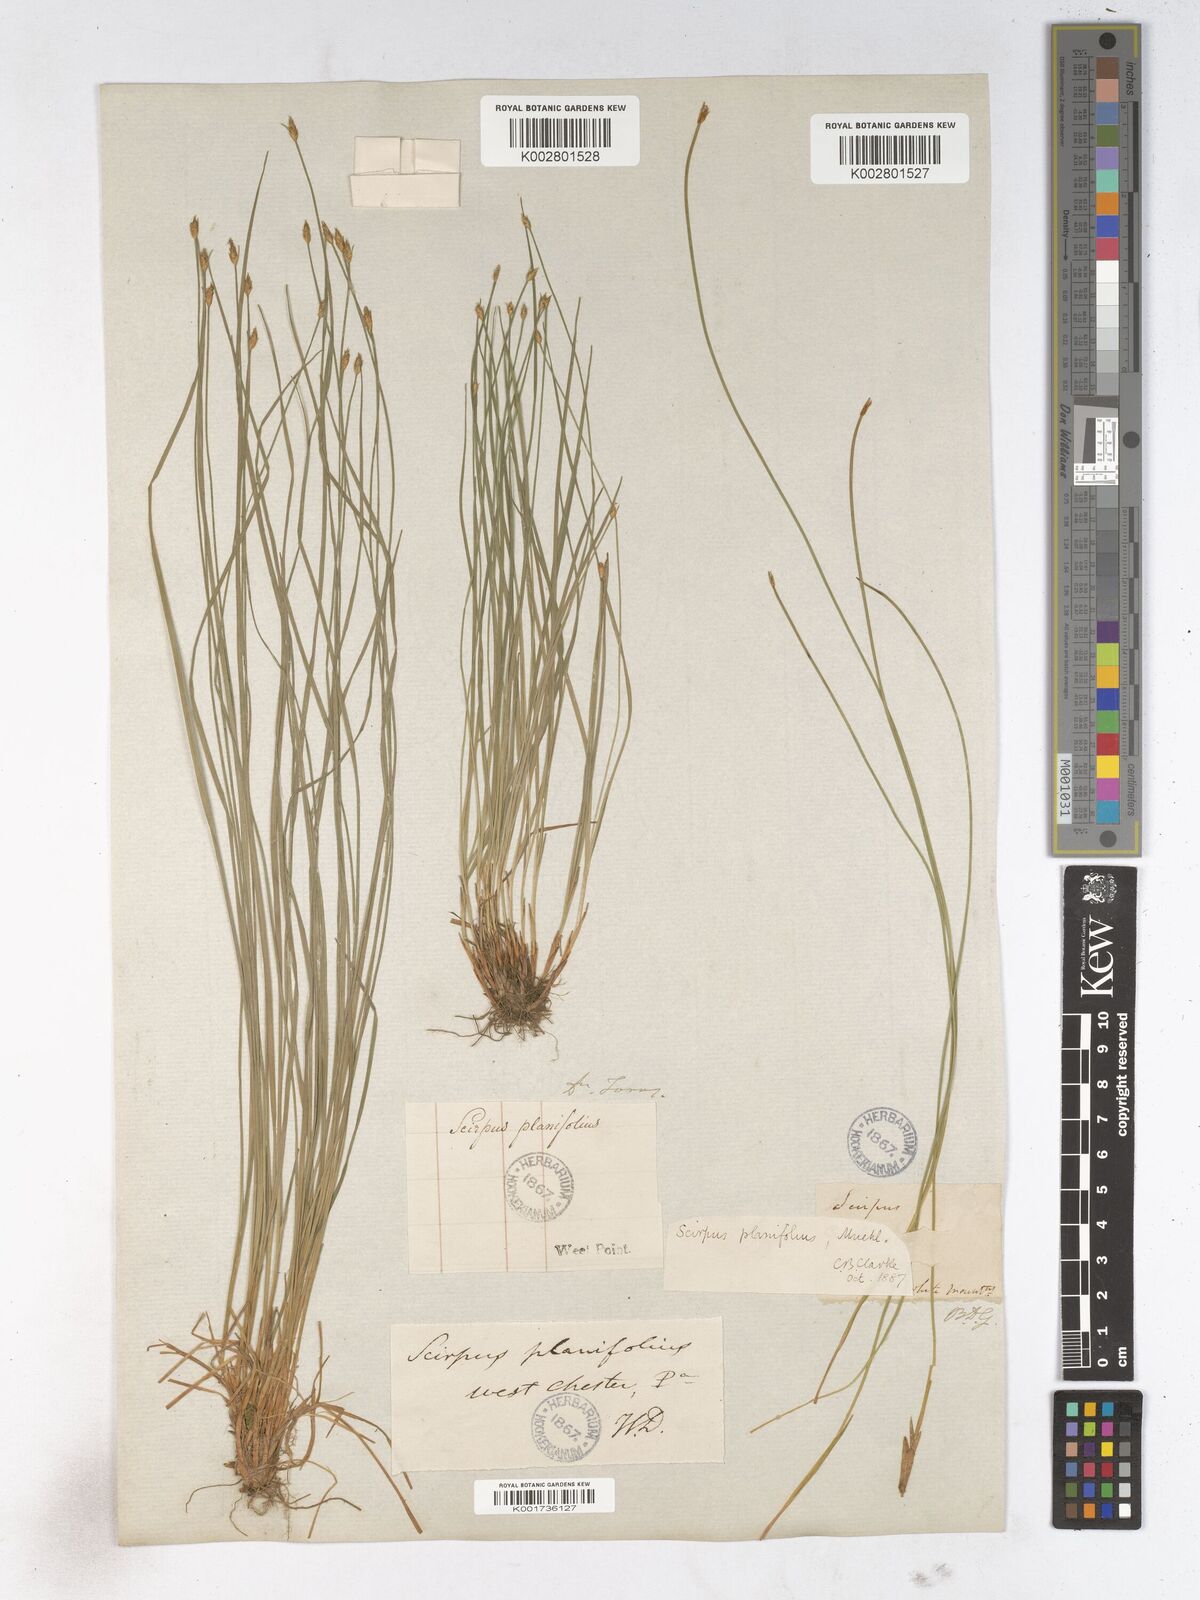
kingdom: Plantae
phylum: Tracheophyta
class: Liliopsida
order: Poales
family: Cyperaceae
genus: Trichophorum
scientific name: Trichophorum planifolium
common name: Bashful bulrush
